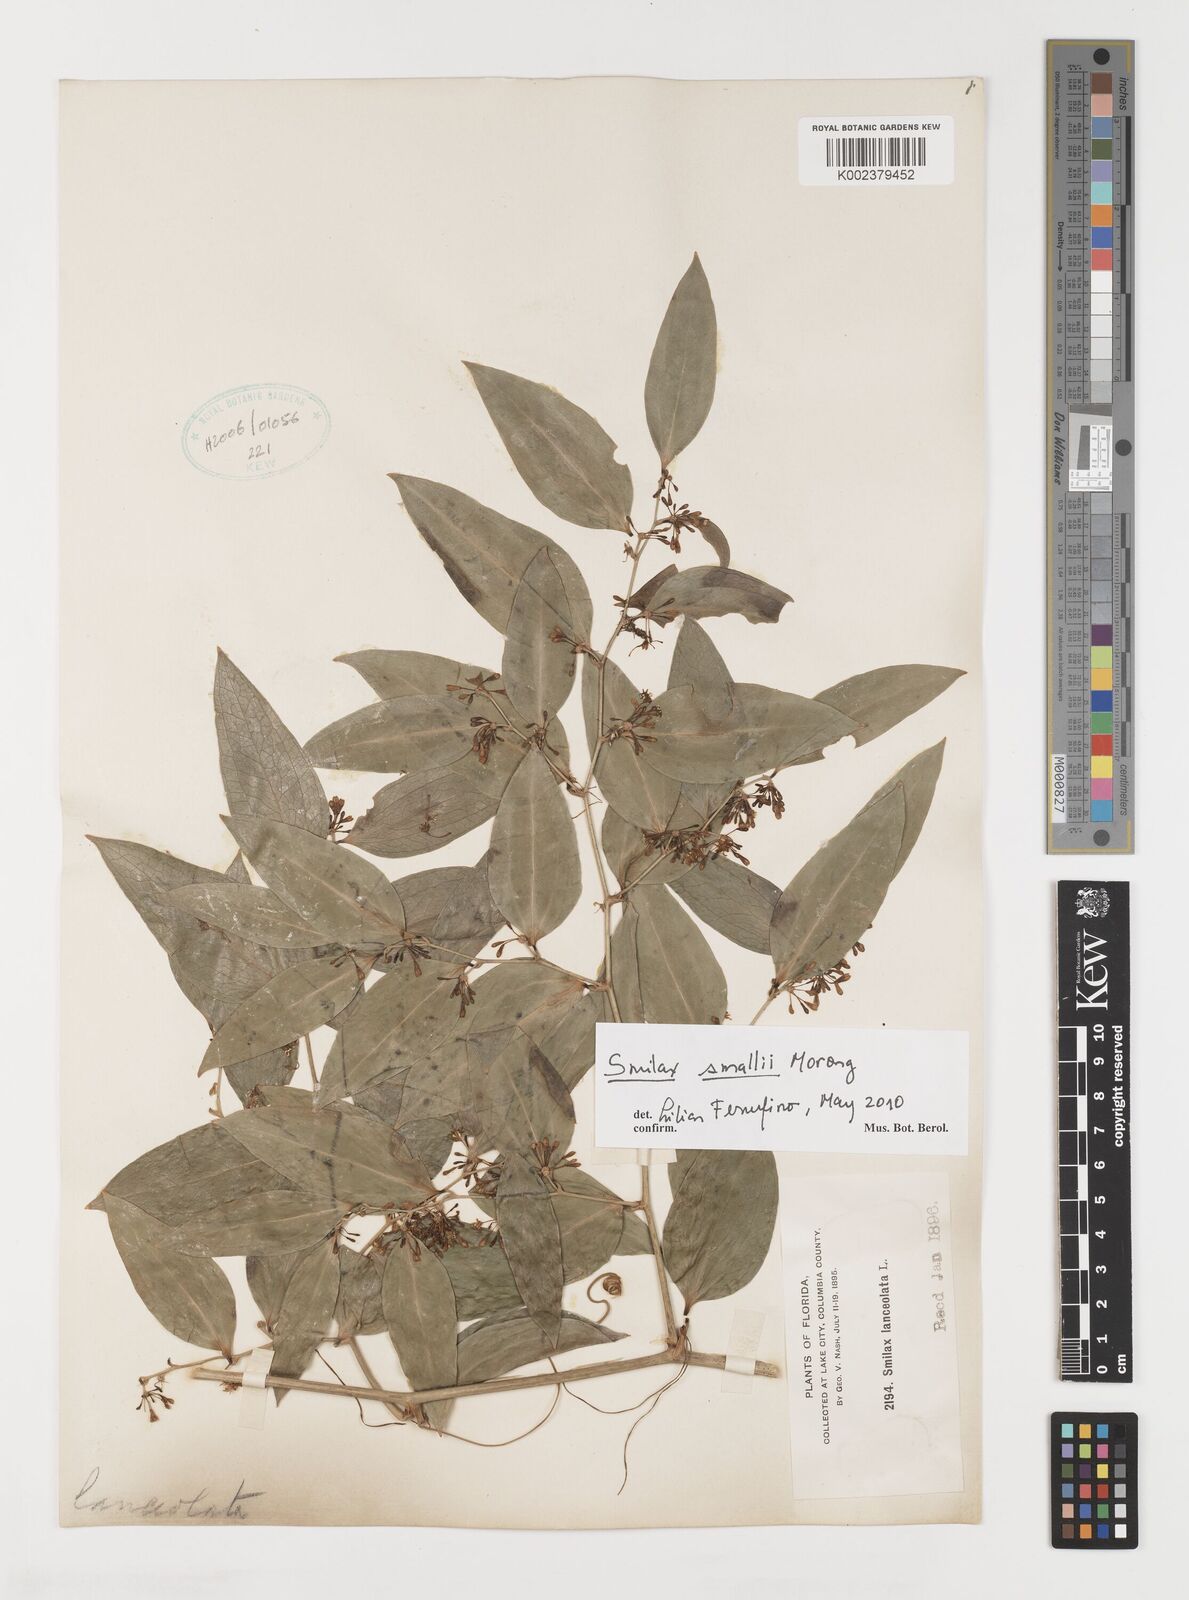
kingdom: Plantae
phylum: Tracheophyta
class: Liliopsida
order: Liliales
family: Smilacaceae
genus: Smilax
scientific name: Smilax maritima
